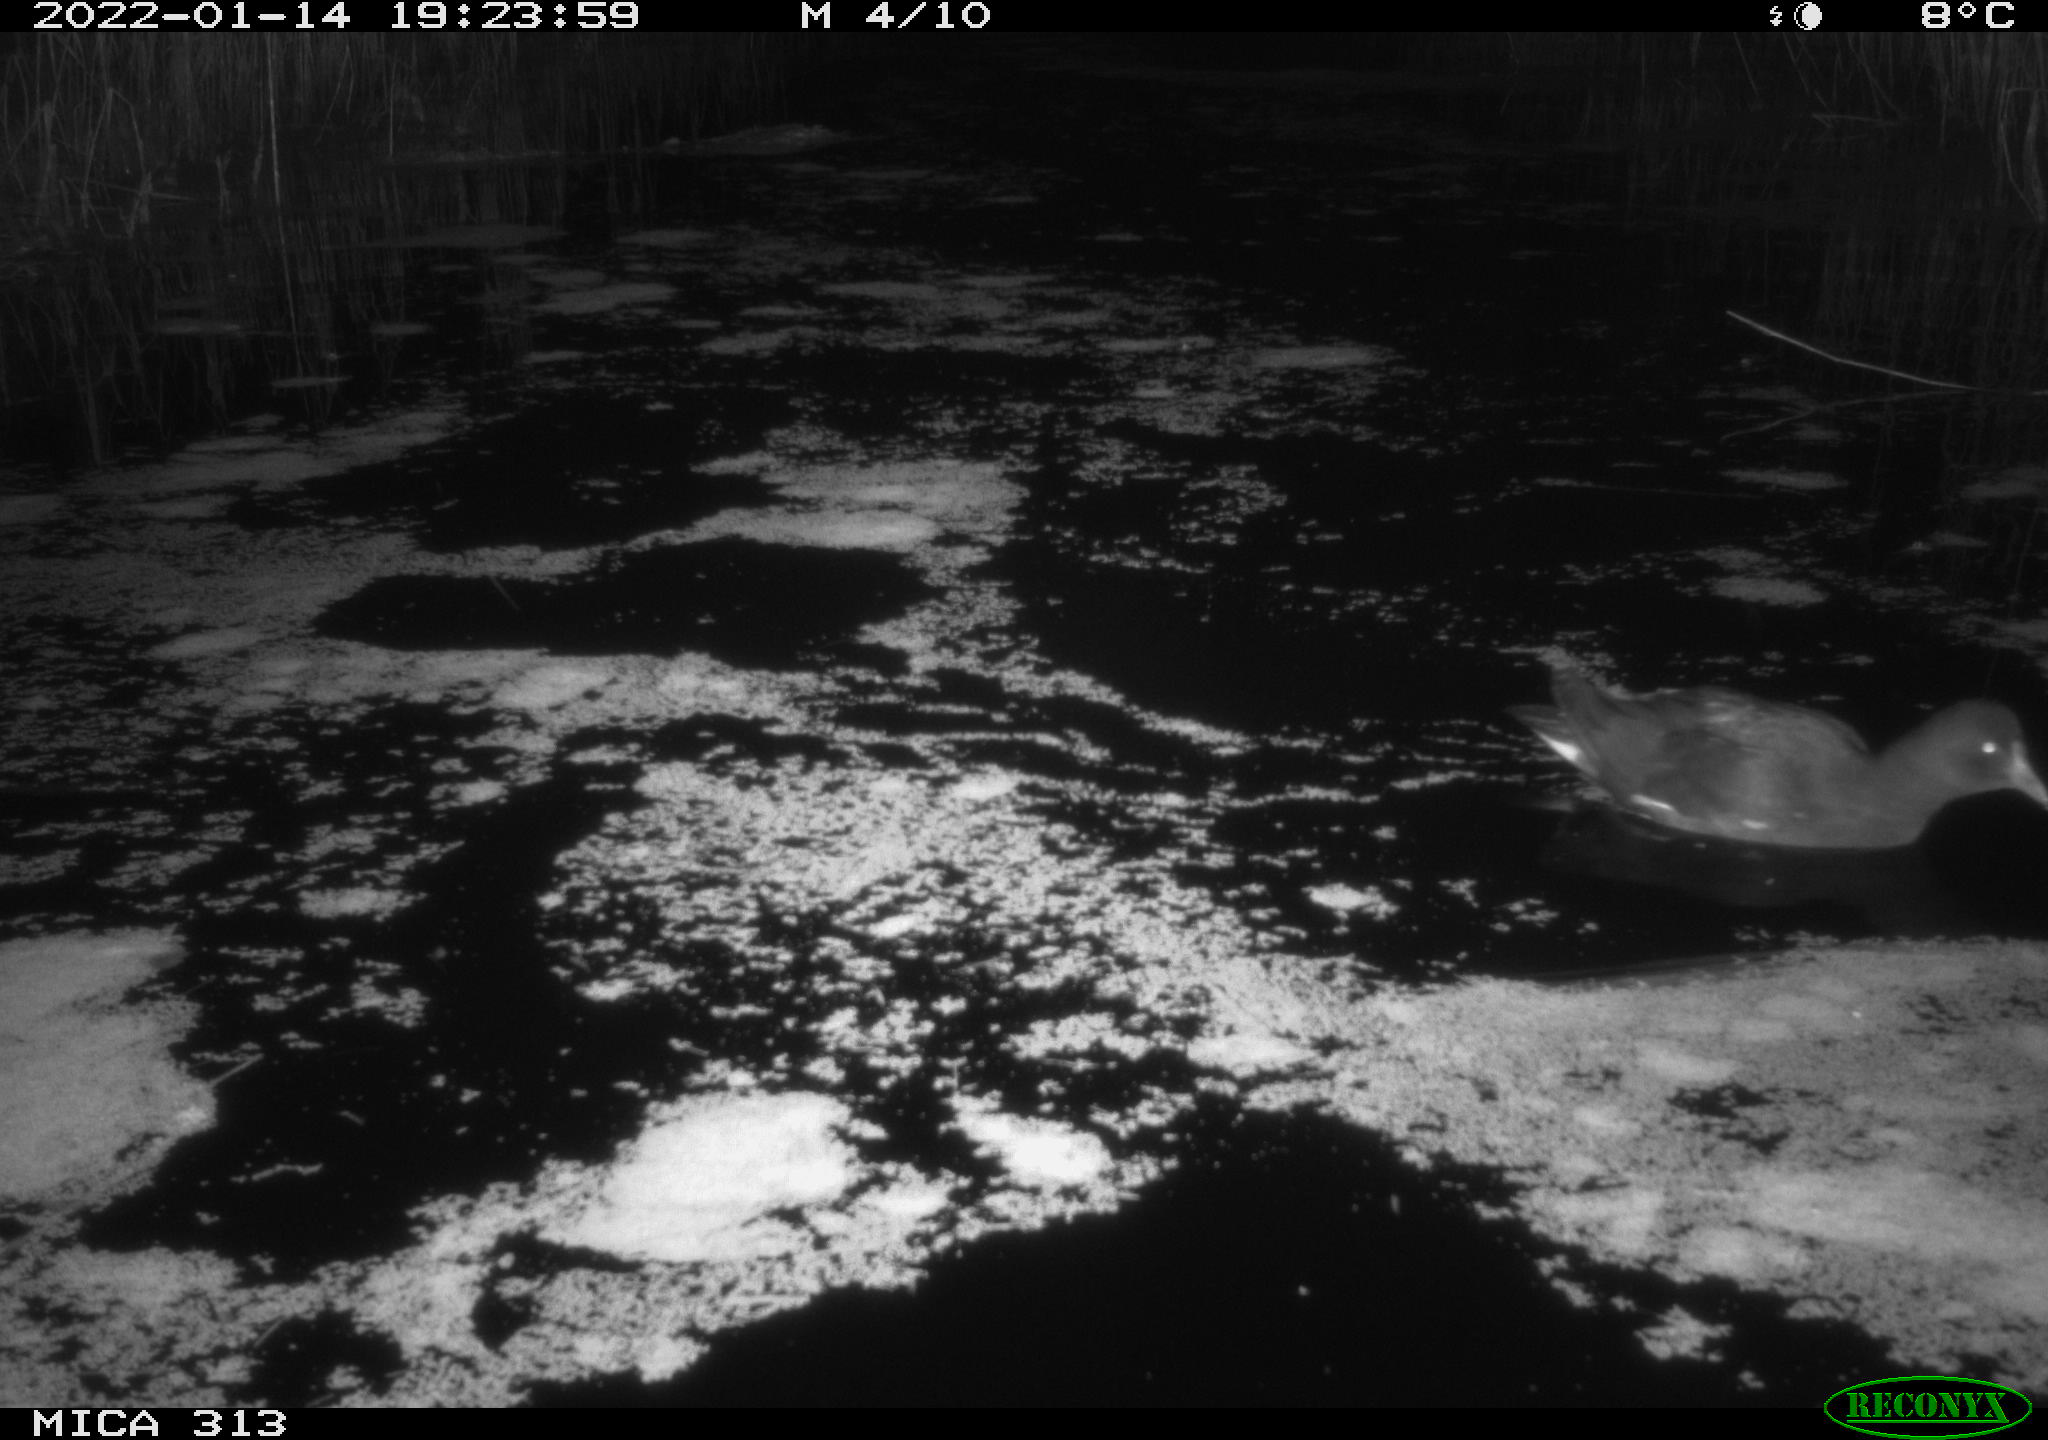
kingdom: Animalia
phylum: Chordata
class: Aves
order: Gruiformes
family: Rallidae
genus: Gallinula
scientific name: Gallinula chloropus
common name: Common moorhen
